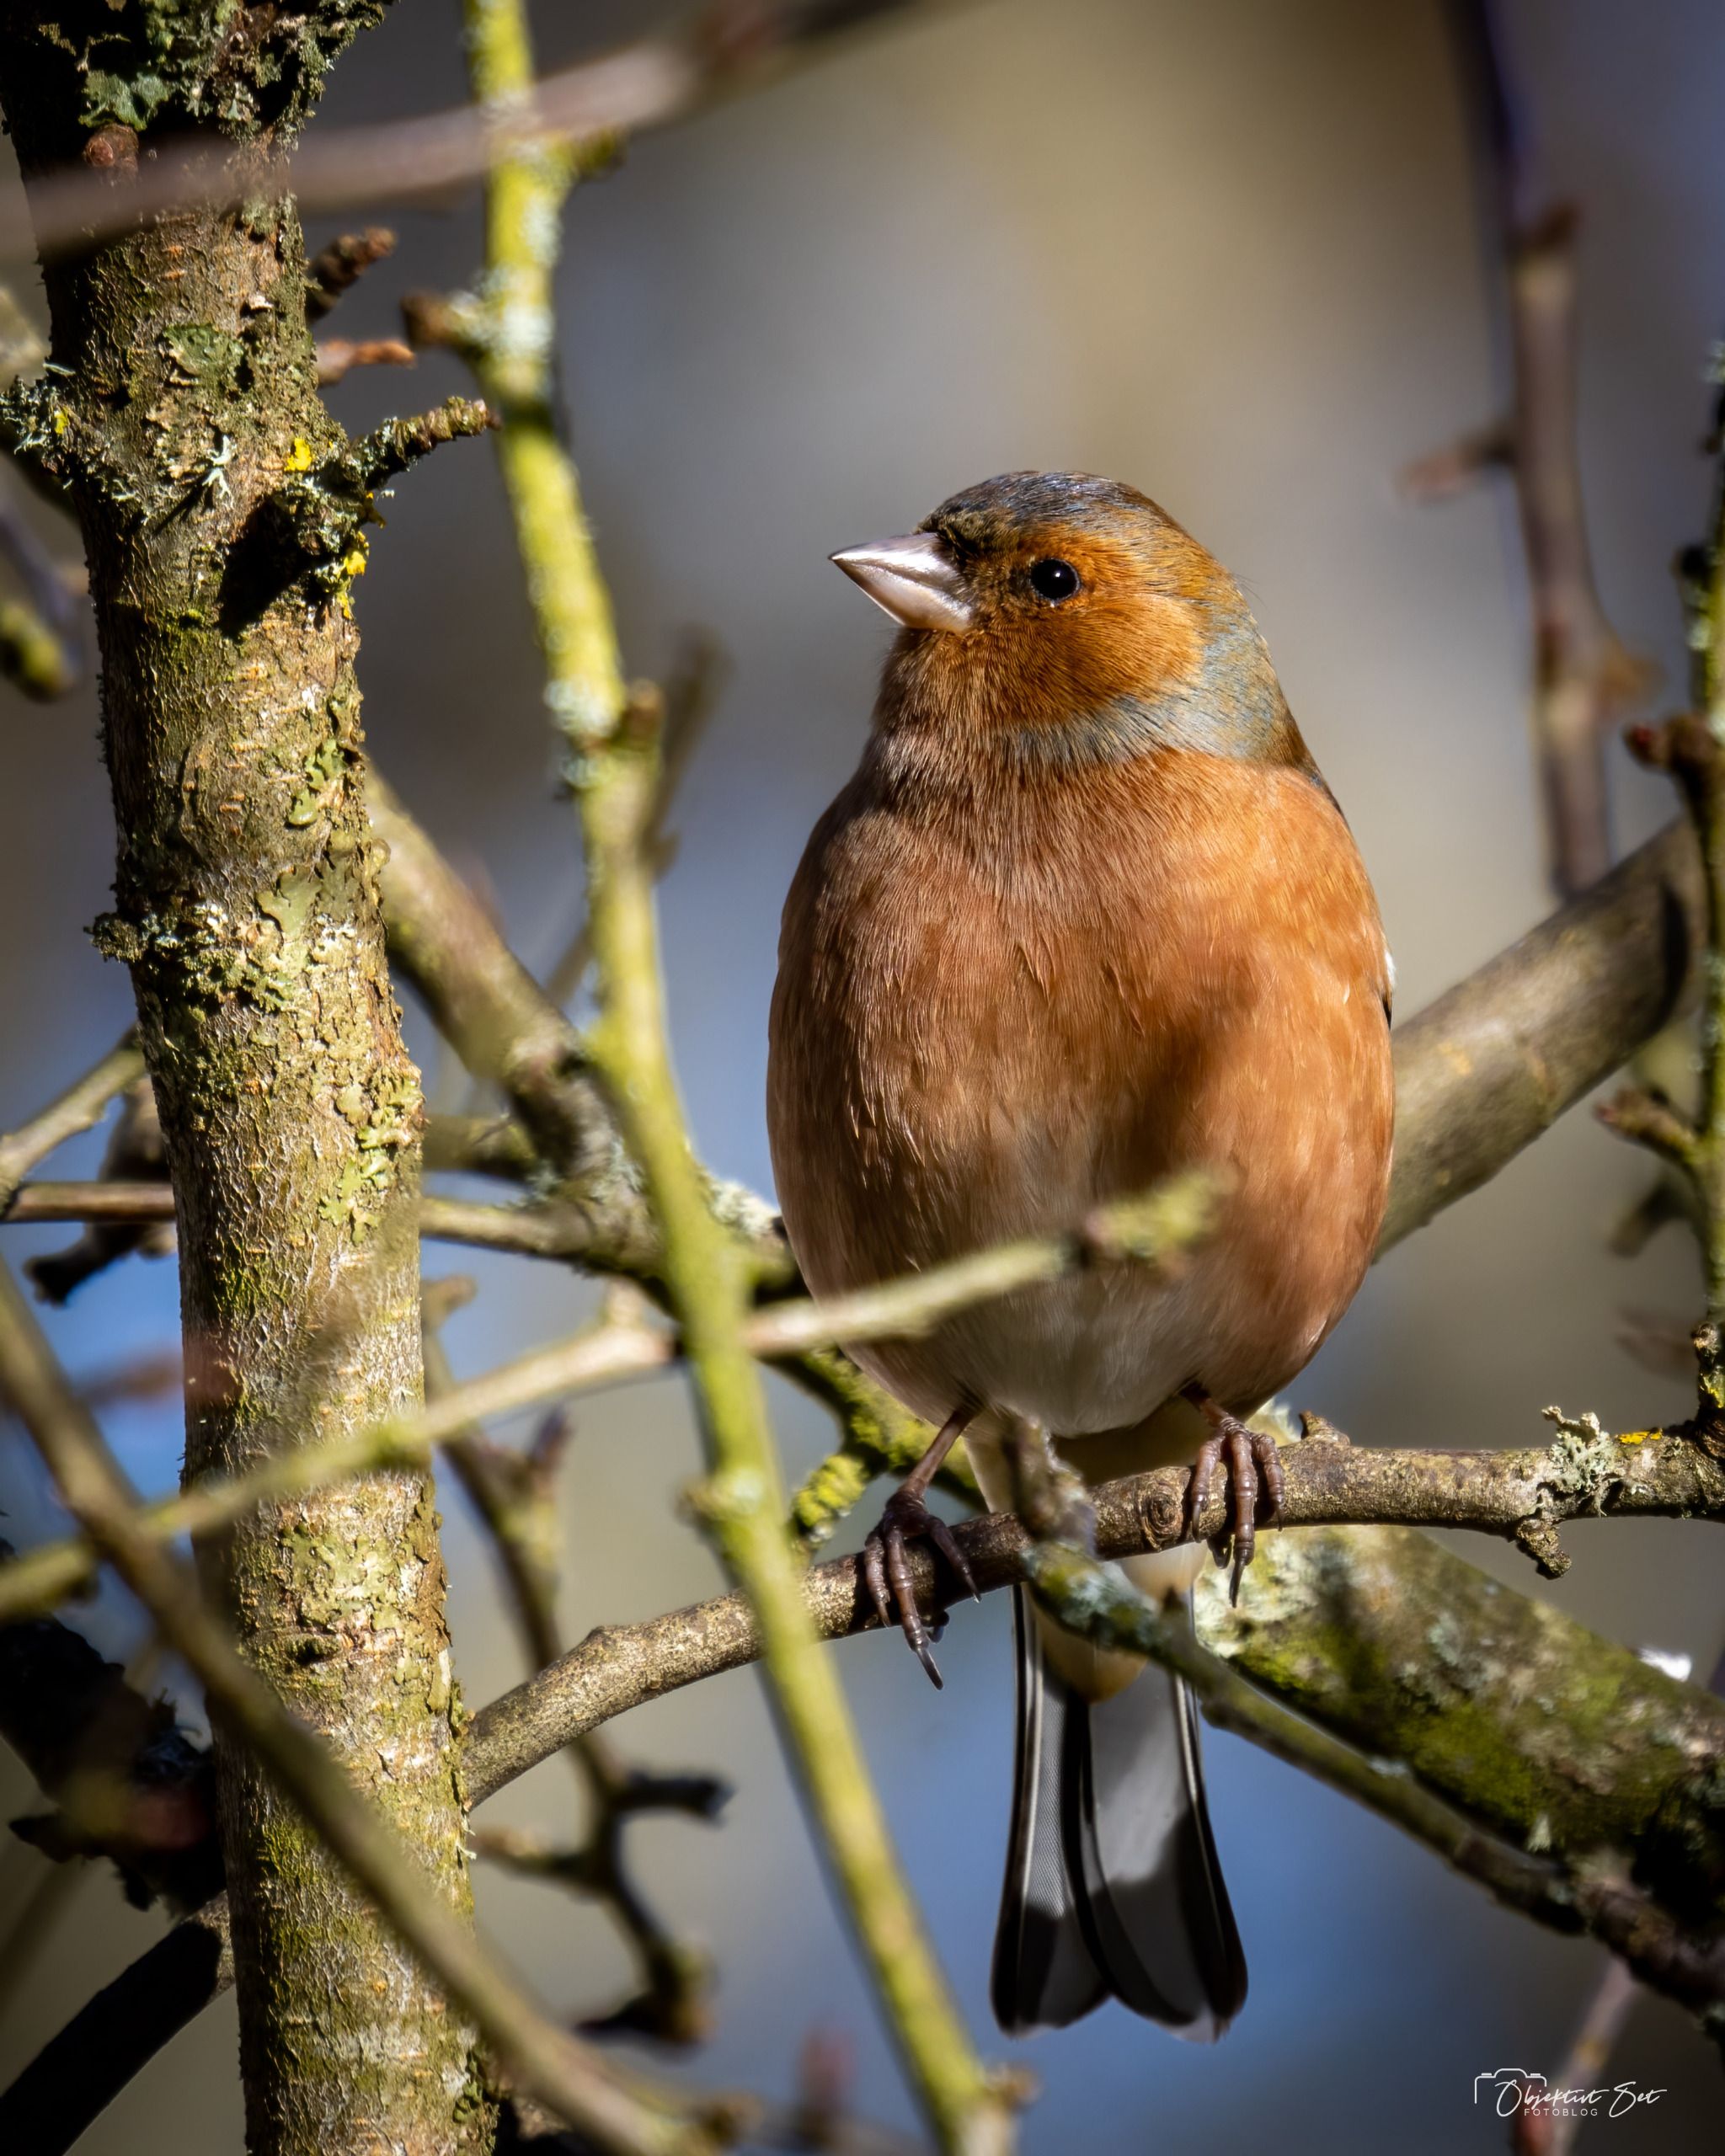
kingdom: Animalia
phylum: Chordata
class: Aves
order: Passeriformes
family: Fringillidae
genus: Fringilla
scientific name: Fringilla coelebs
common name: Bogfinke
